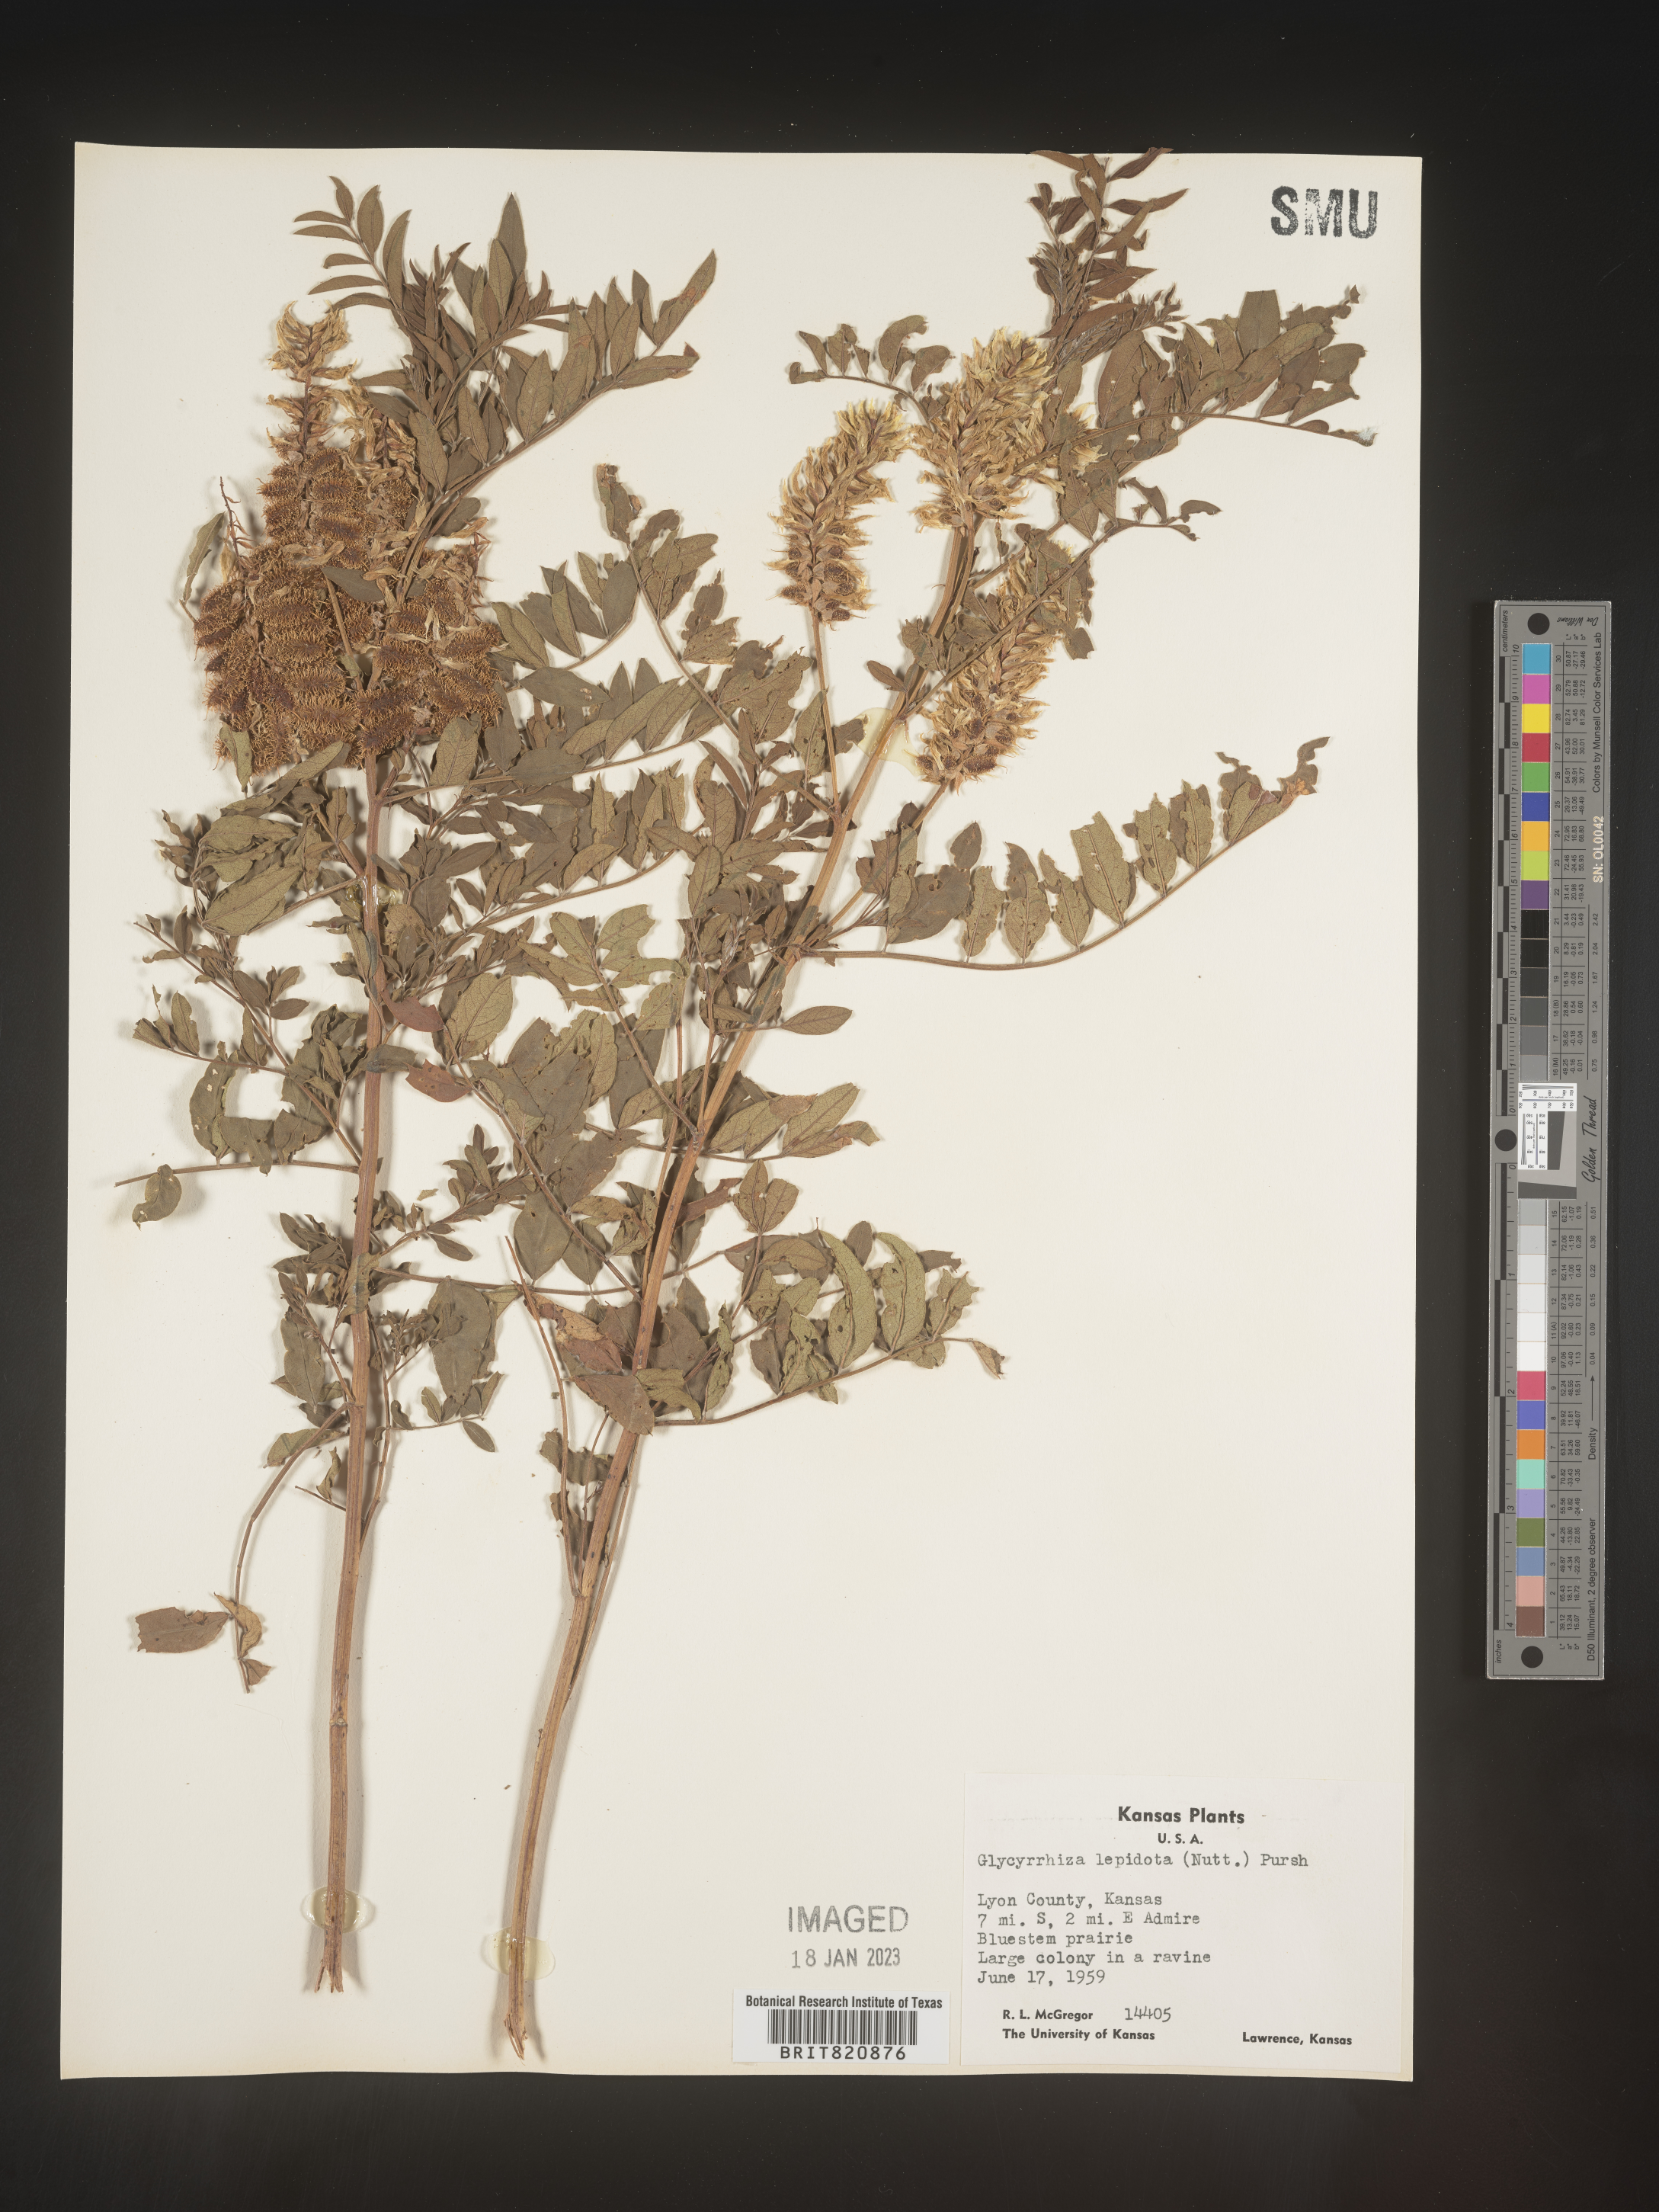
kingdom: Plantae
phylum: Tracheophyta
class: Magnoliopsida
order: Fabales
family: Fabaceae
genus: Glycyrrhiza
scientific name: Glycyrrhiza lepidota
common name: American liquorice
